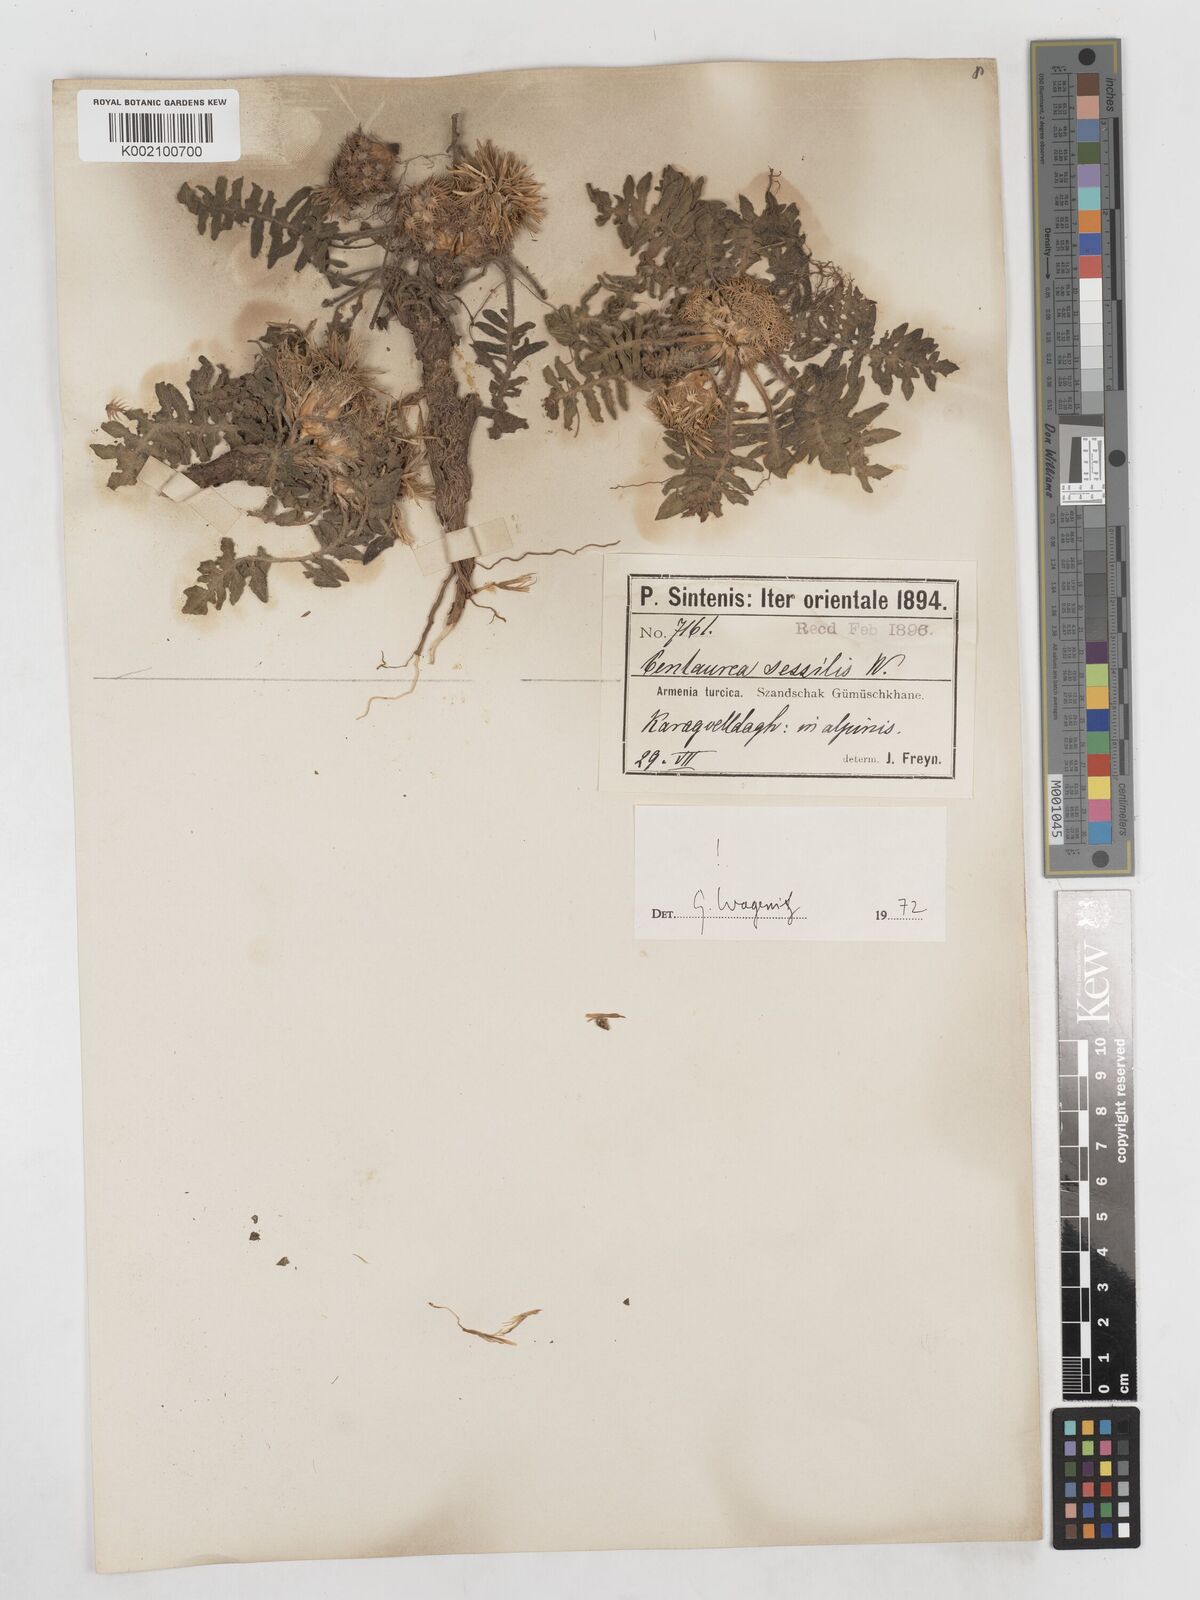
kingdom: Plantae
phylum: Tracheophyta
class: Magnoliopsida
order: Asterales
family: Asteraceae
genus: Centaurea
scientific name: Centaurea oltensis
